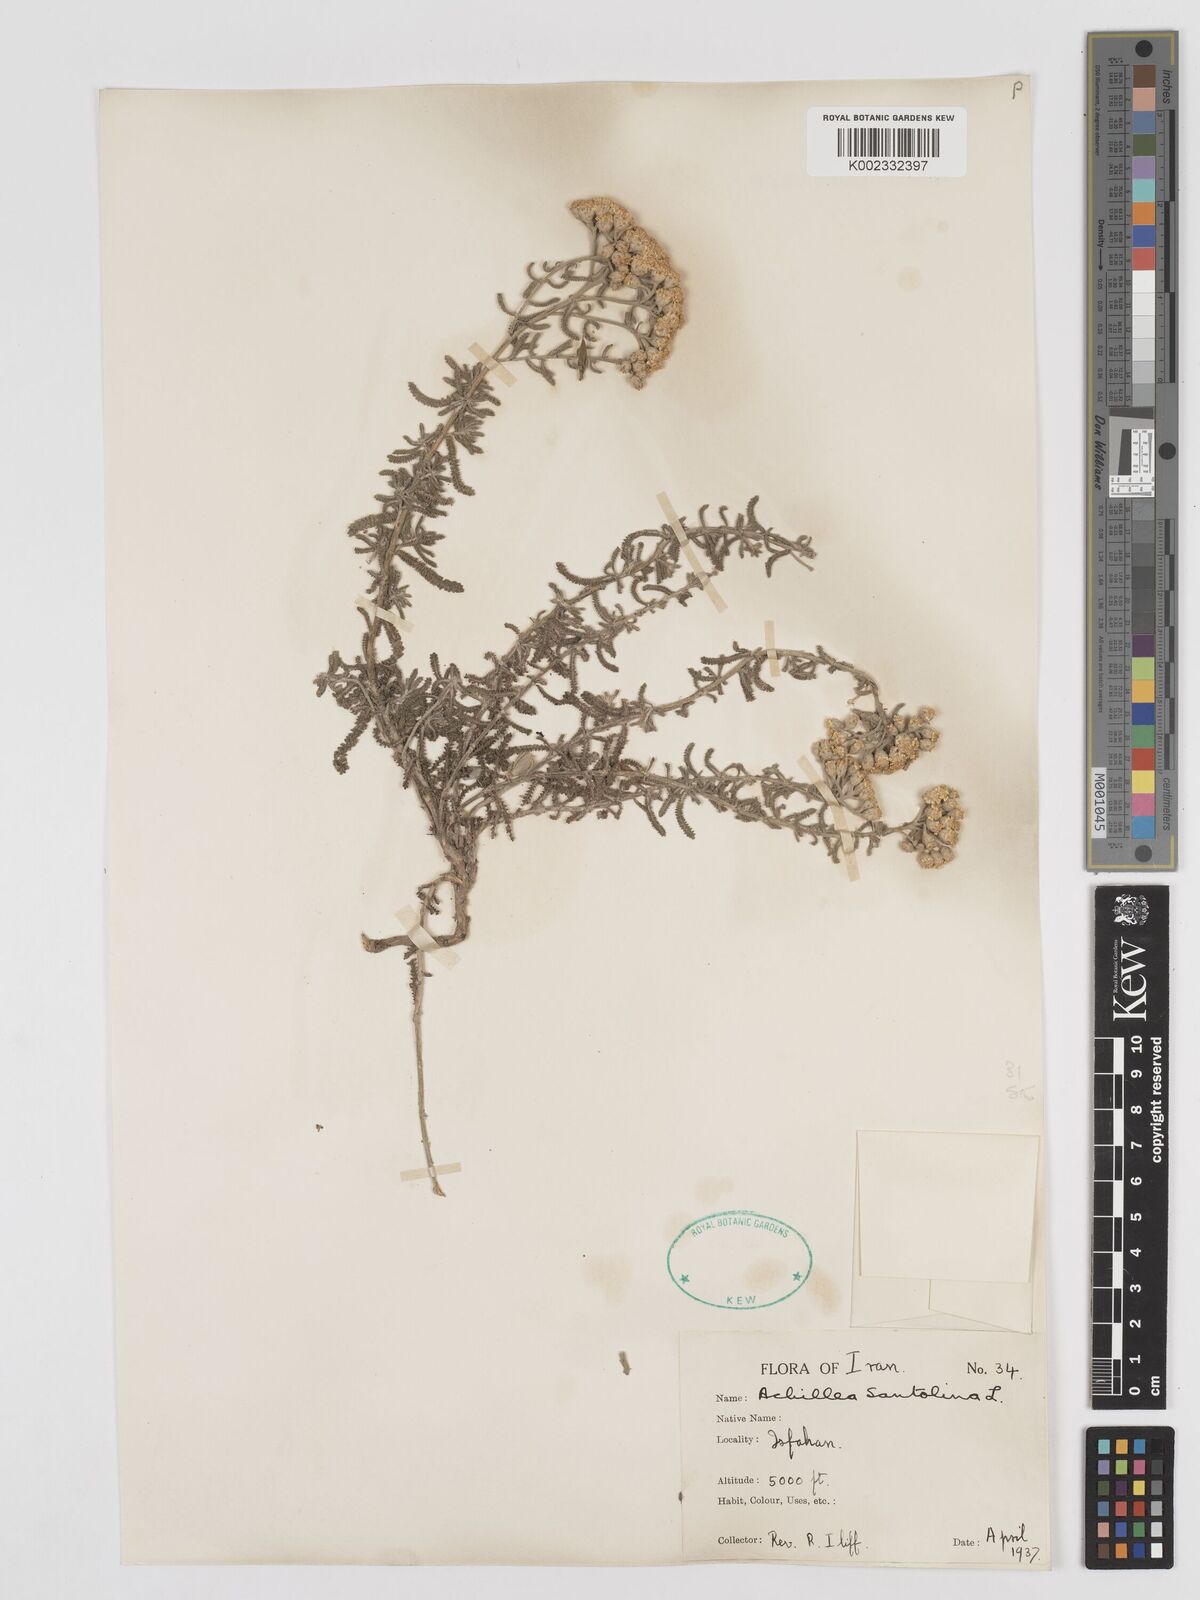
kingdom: Plantae
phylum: Tracheophyta
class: Magnoliopsida
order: Asterales
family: Asteraceae
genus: Achillea
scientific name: Achillea cretica
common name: Chamomile-leaved lavender-cotton
